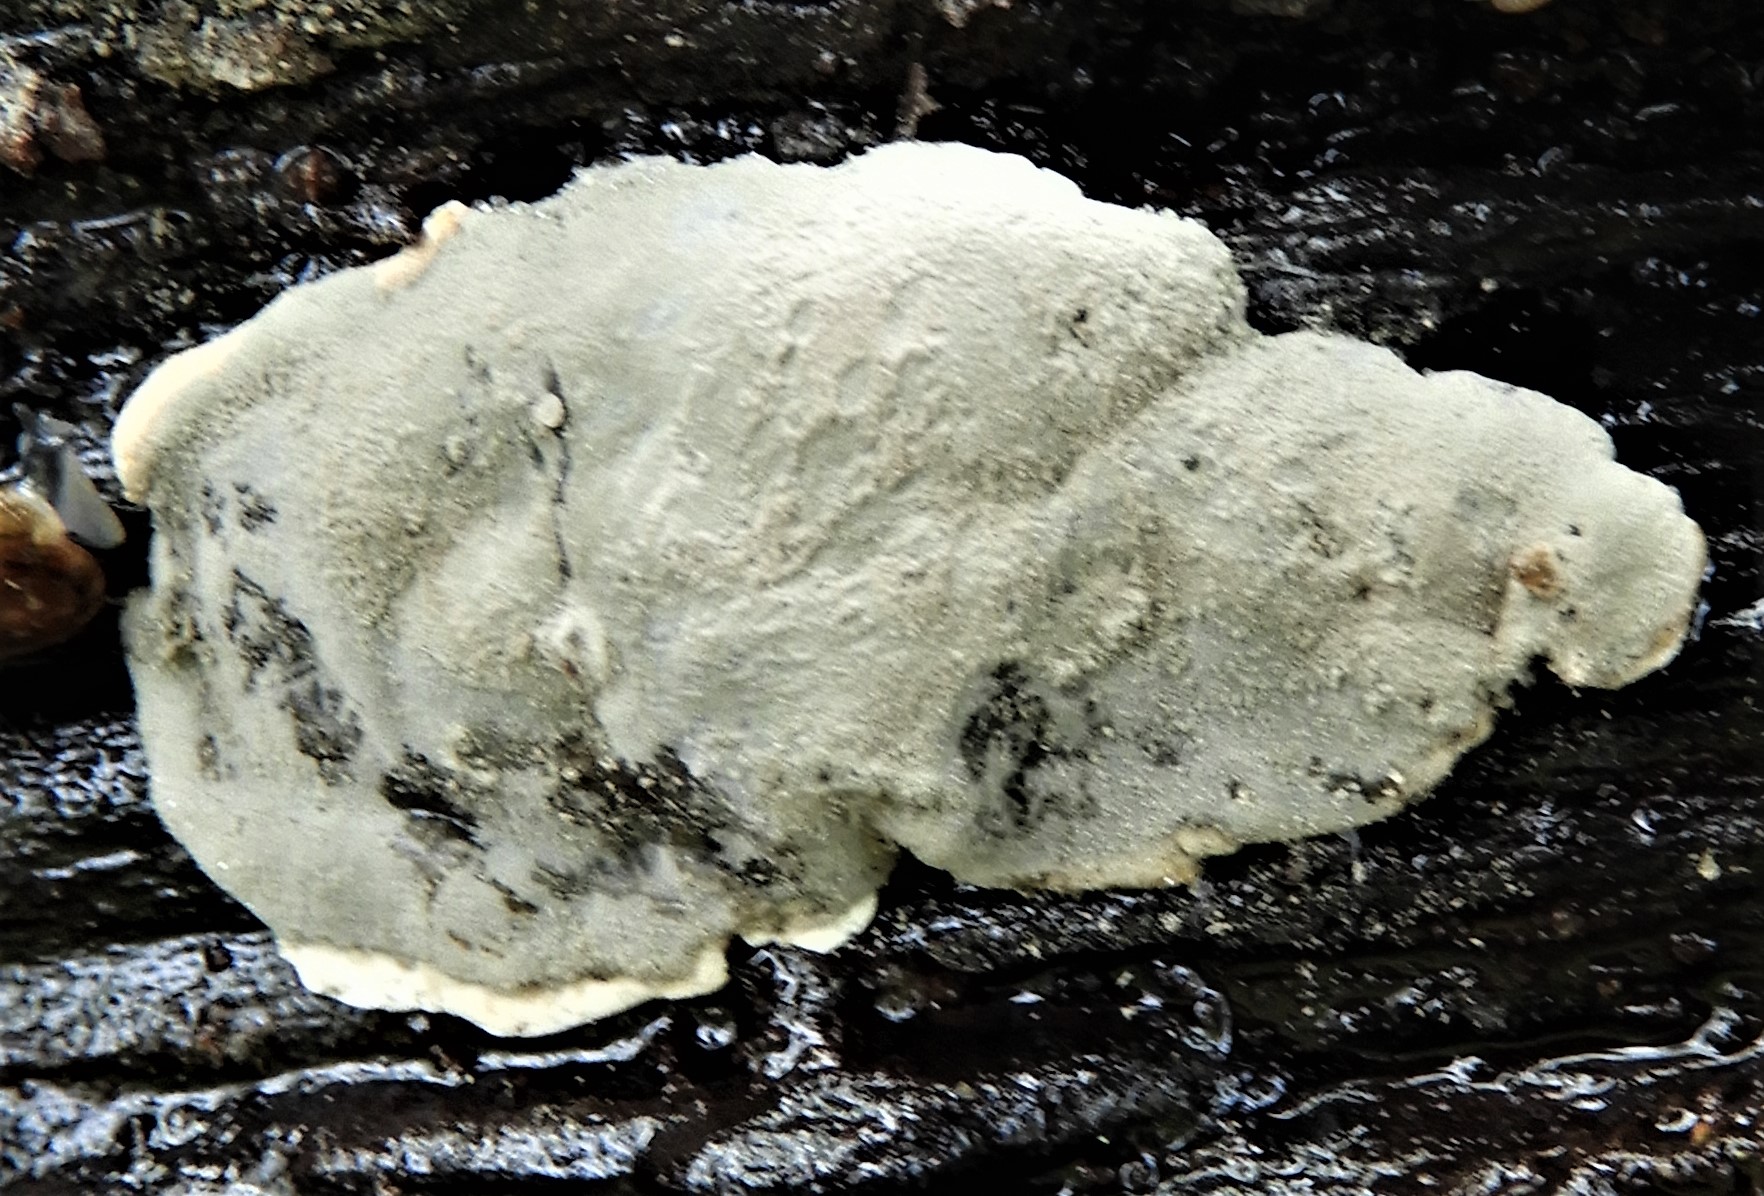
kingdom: Fungi
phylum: Ascomycota
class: Sordariomycetes
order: Xylariales
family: Xylariaceae
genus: Kretzschmaria
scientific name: Kretzschmaria deusta
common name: stor kulsvamp
